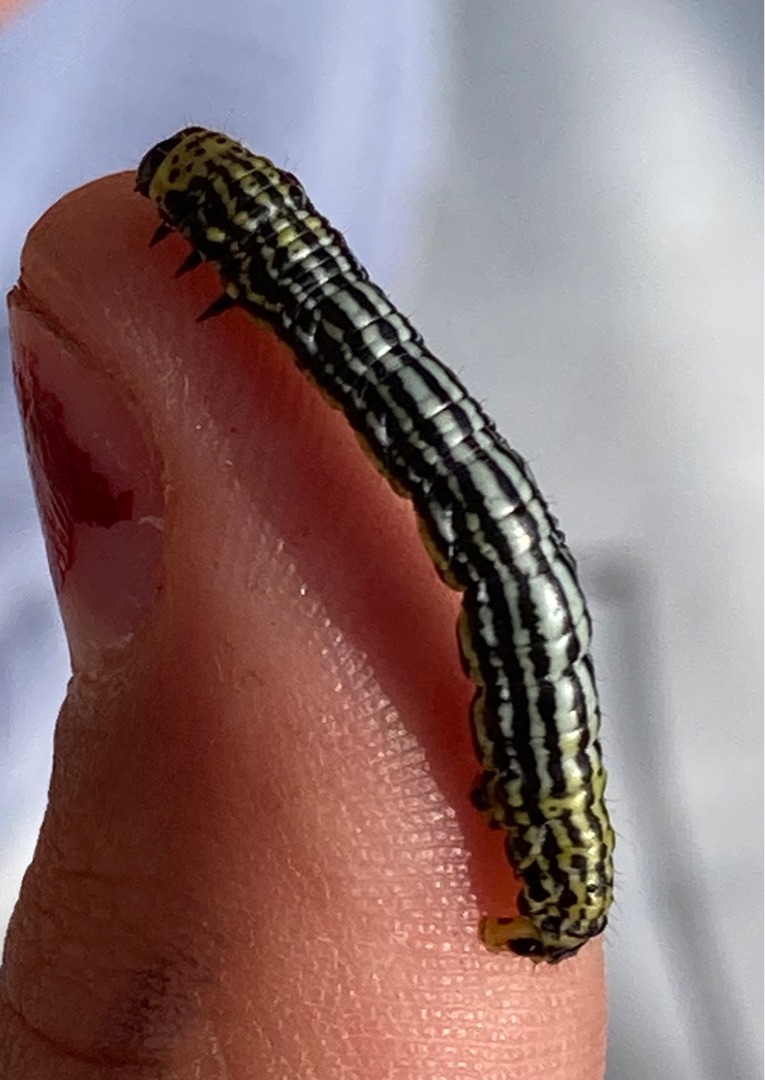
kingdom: Animalia
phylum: Arthropoda
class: Insecta
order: Lepidoptera
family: Geometridae
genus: Abraxas
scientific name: Abraxas sylvata
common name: Elmemåler
